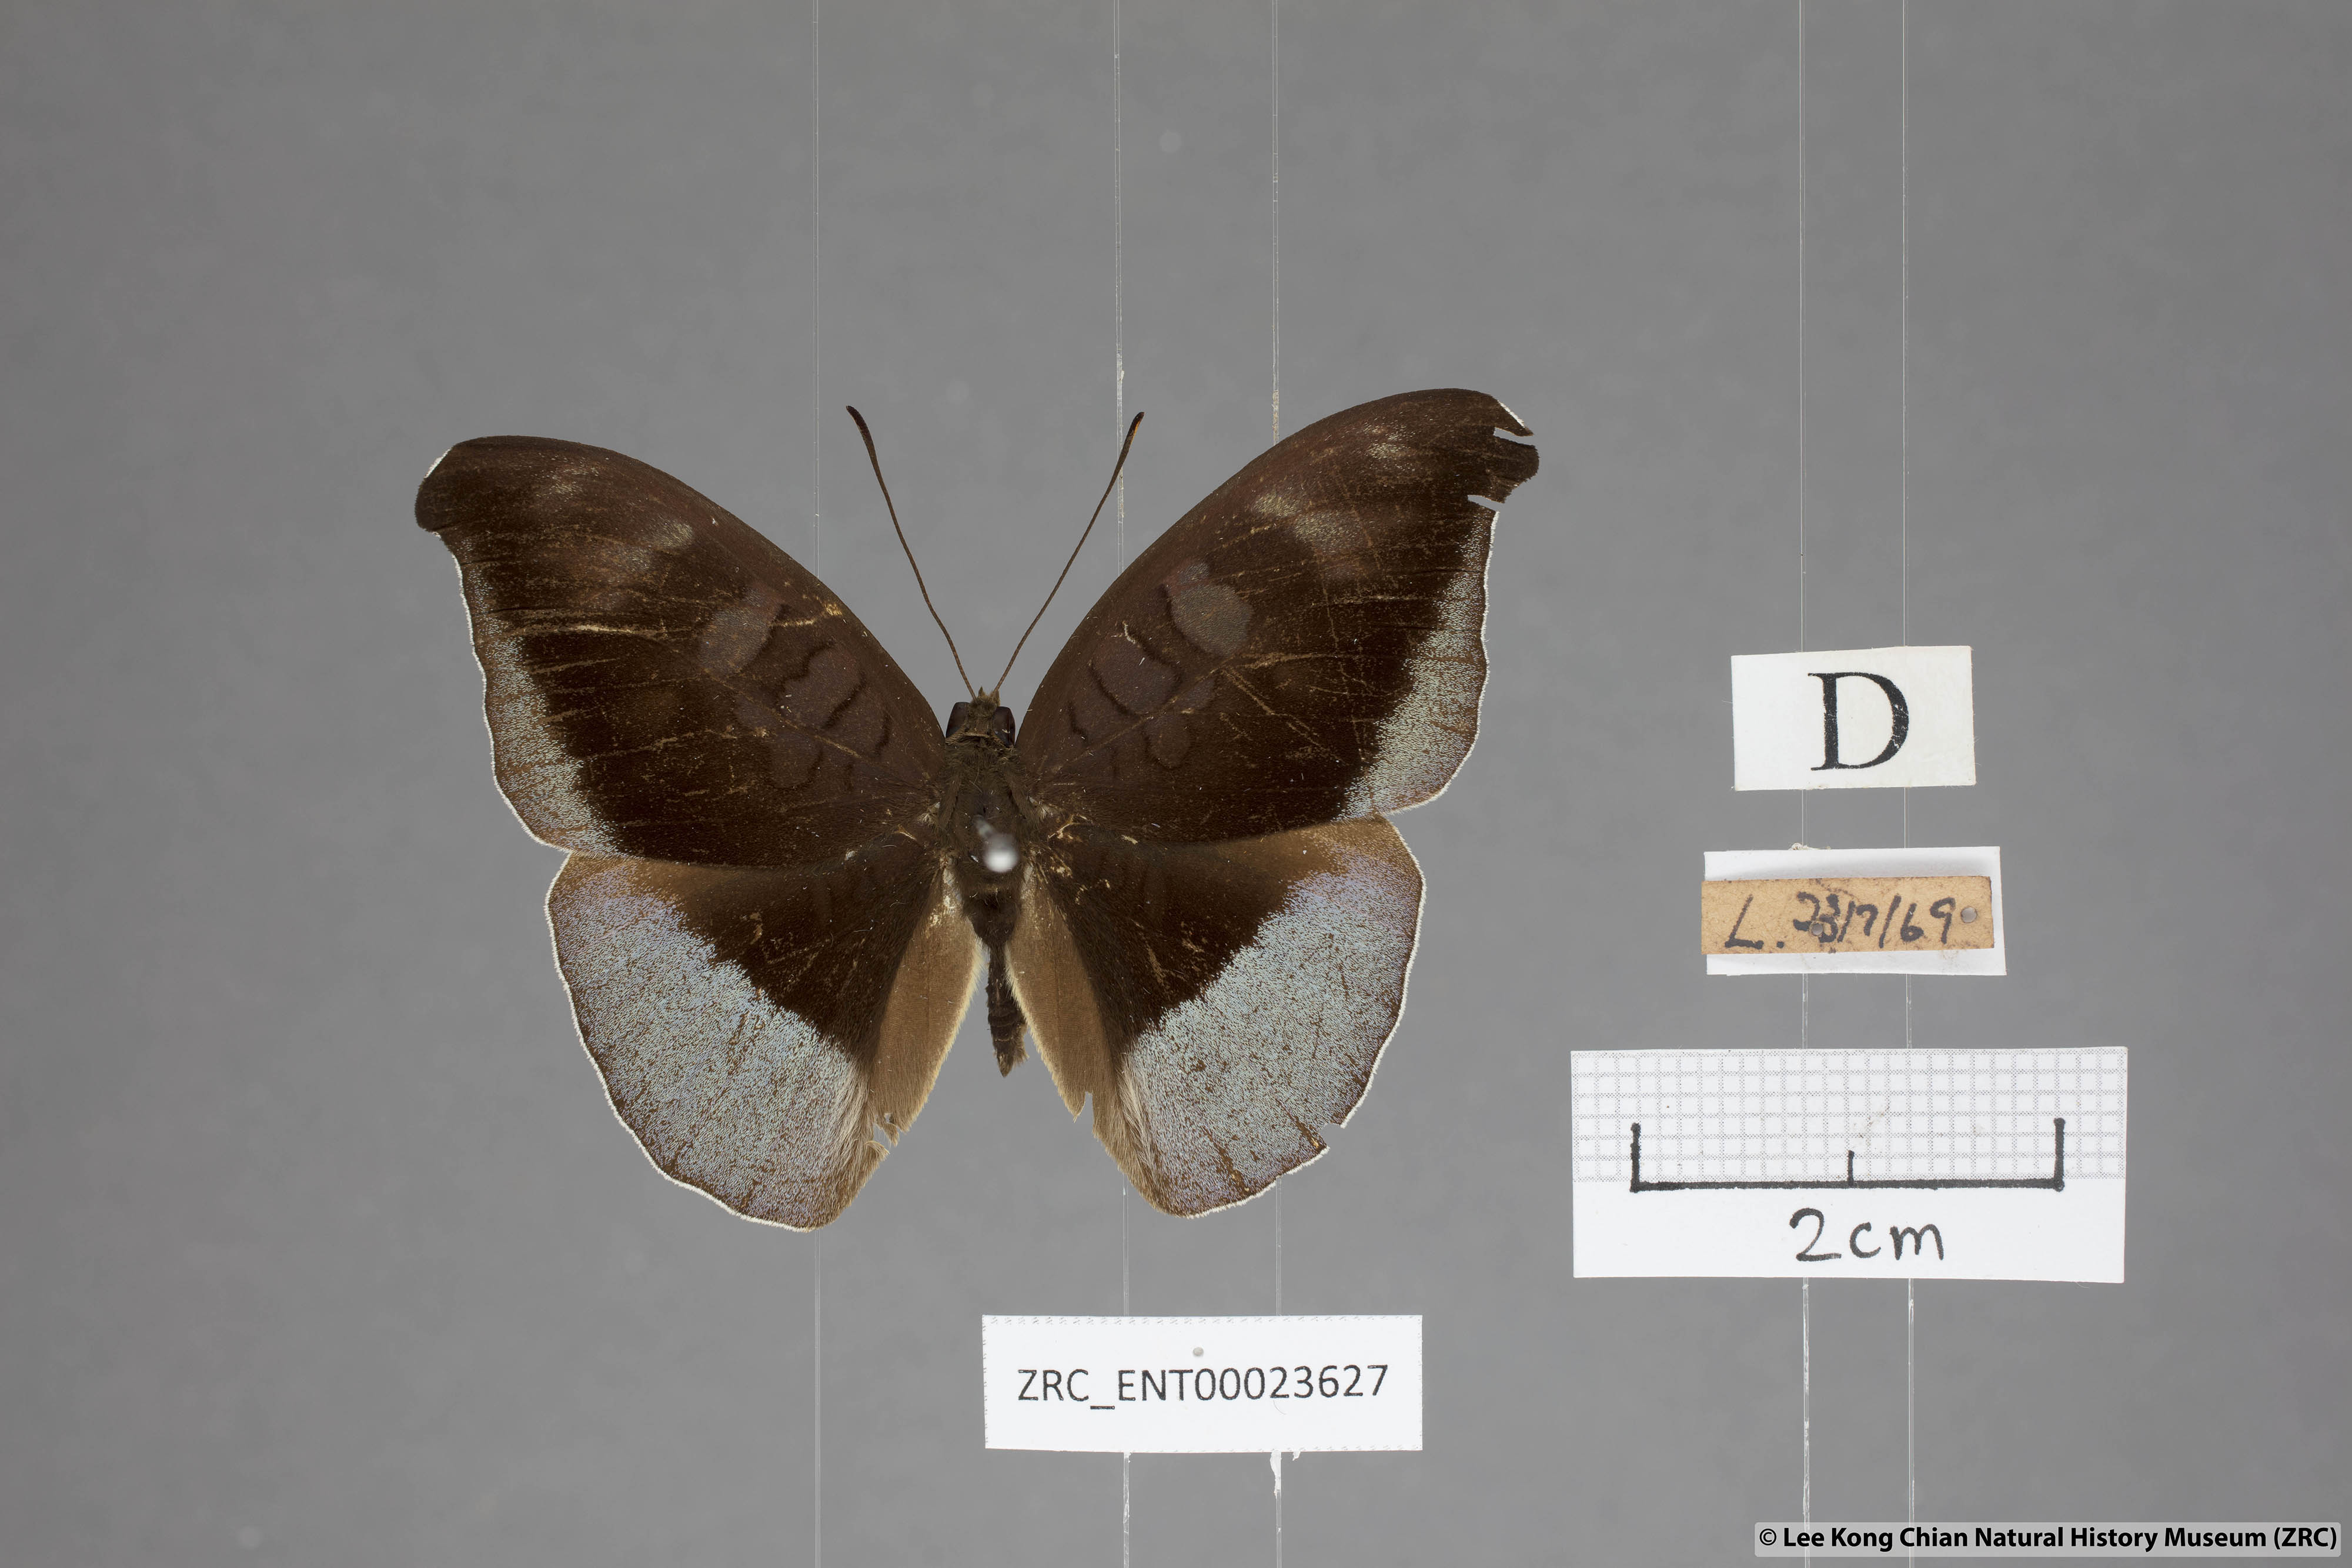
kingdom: Animalia
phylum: Arthropoda
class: Insecta
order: Lepidoptera
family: Nymphalidae
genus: Tanaecia
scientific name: Tanaecia cocytus
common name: Lavender count
